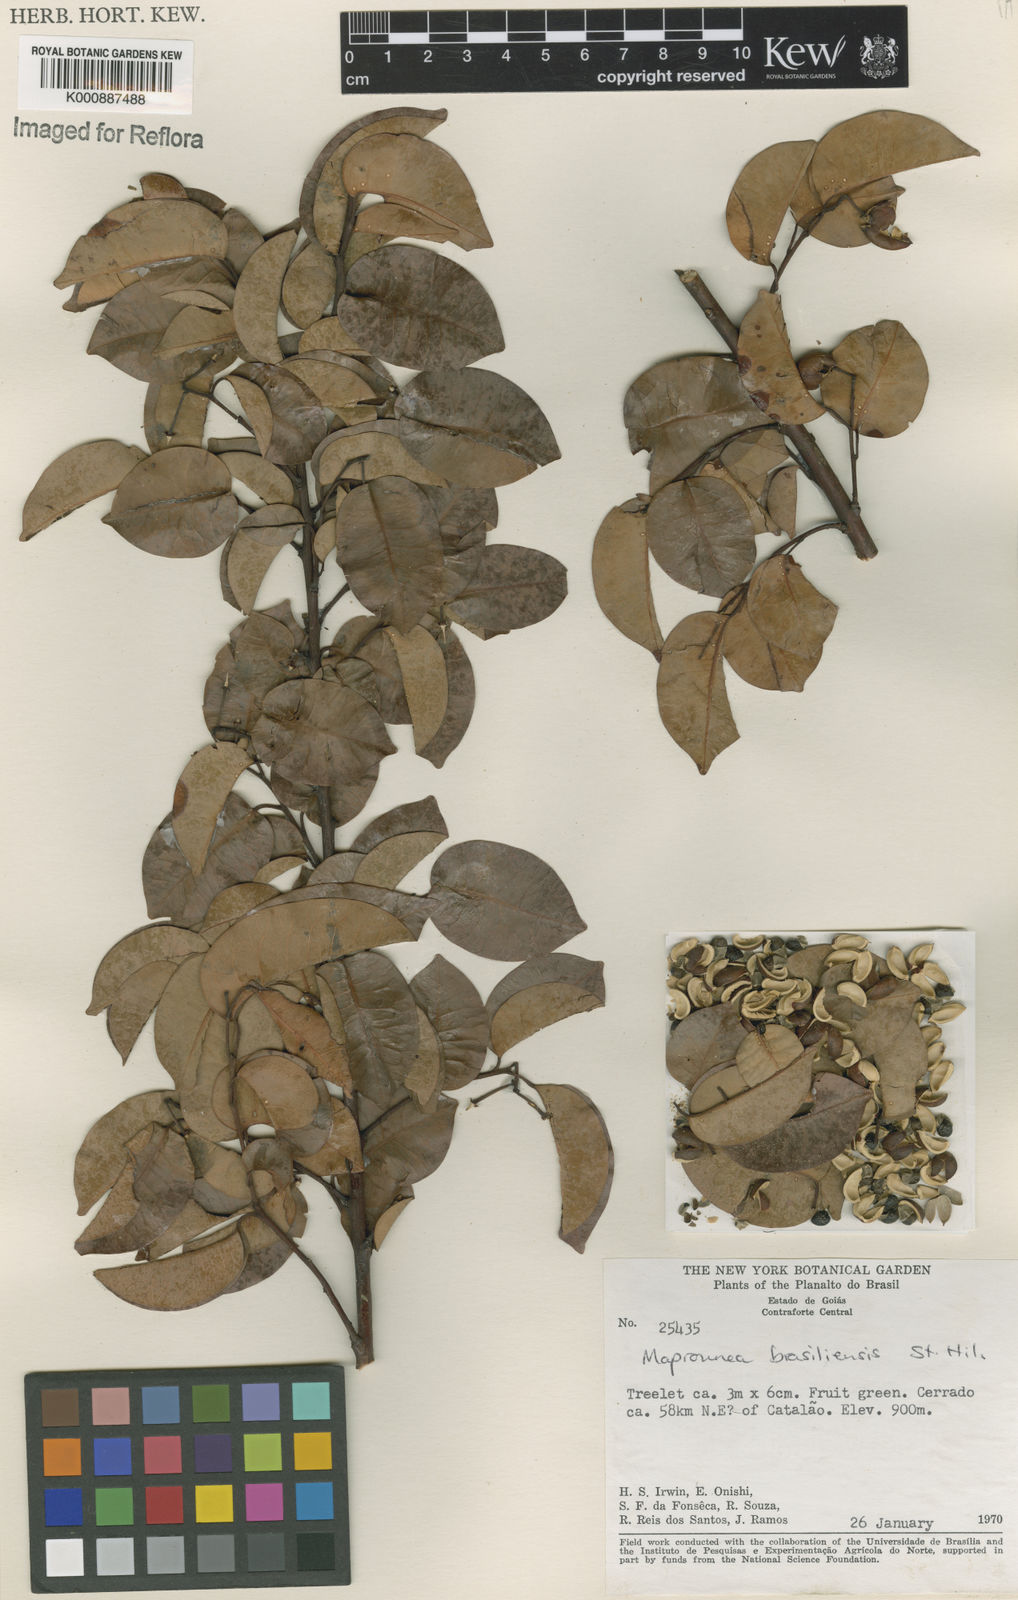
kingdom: Plantae
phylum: Tracheophyta
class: Magnoliopsida
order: Malpighiales
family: Euphorbiaceae
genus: Maprounea
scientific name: Maprounea brasiliensis
